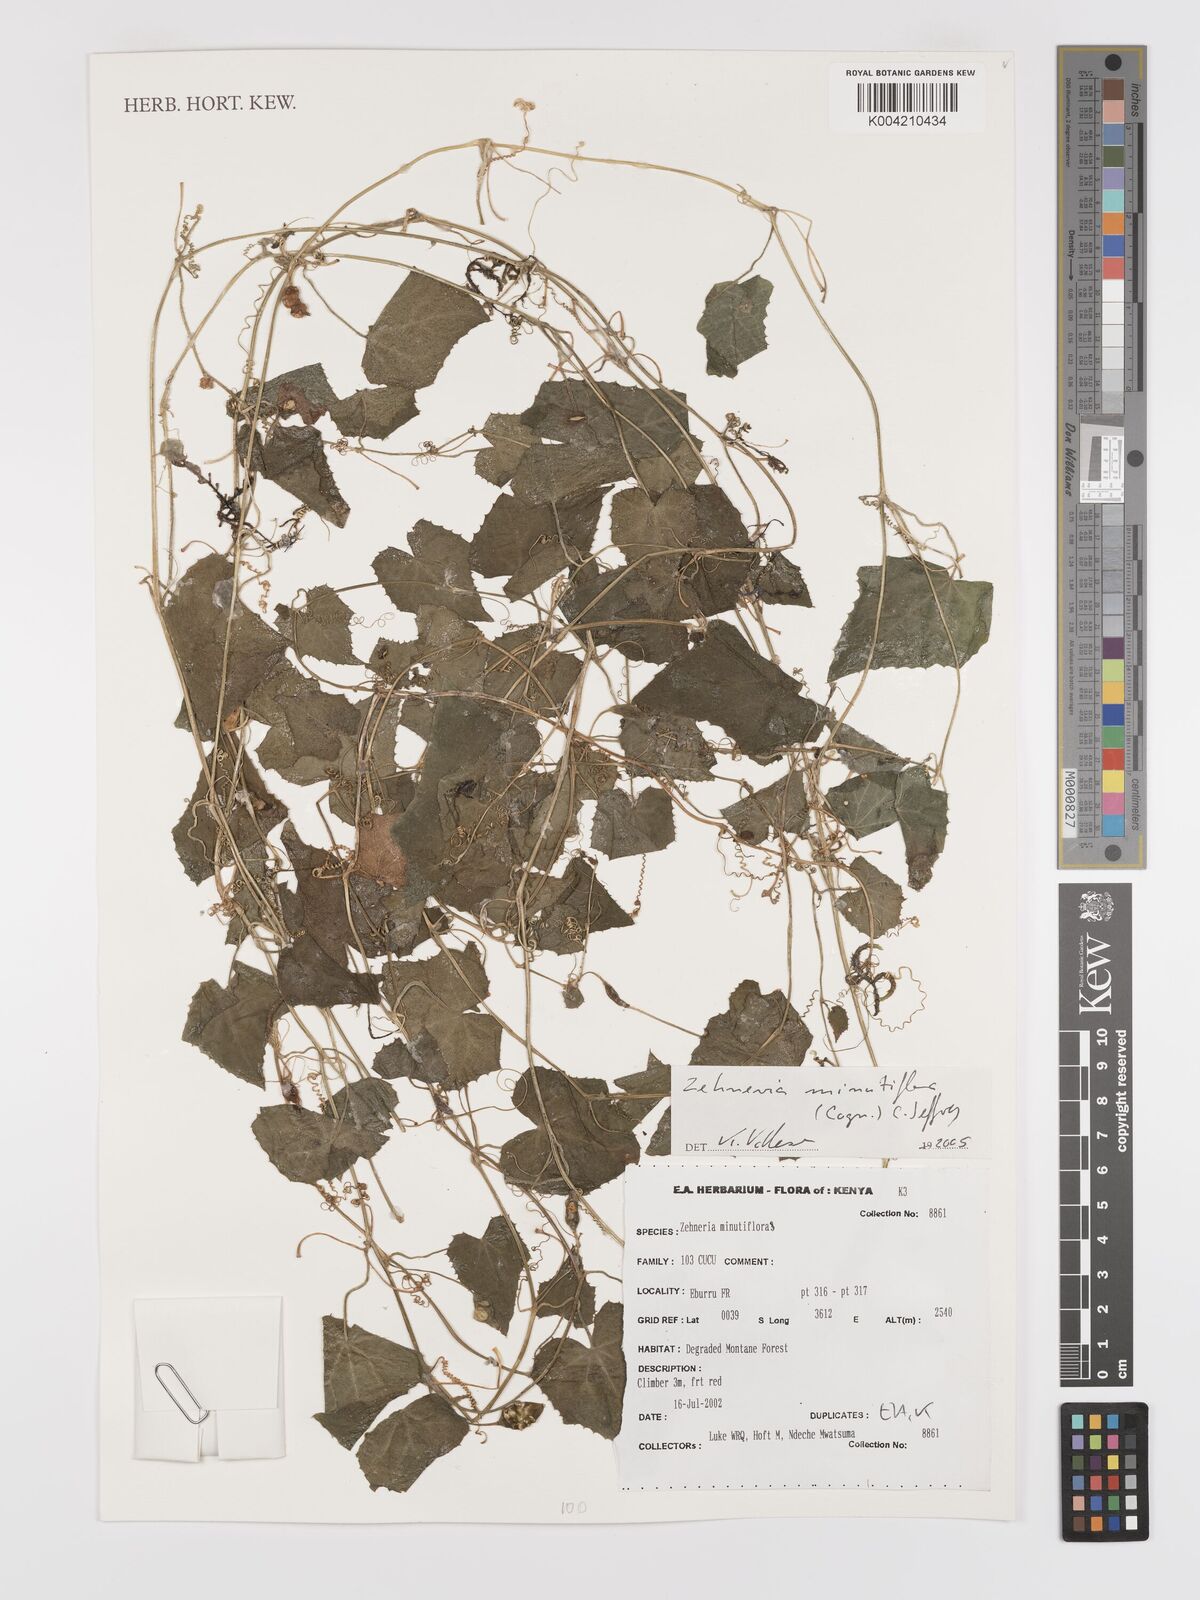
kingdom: Plantae
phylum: Tracheophyta
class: Magnoliopsida
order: Cucurbitales
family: Cucurbitaceae
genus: Zehneria
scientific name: Zehneria minutiflora
